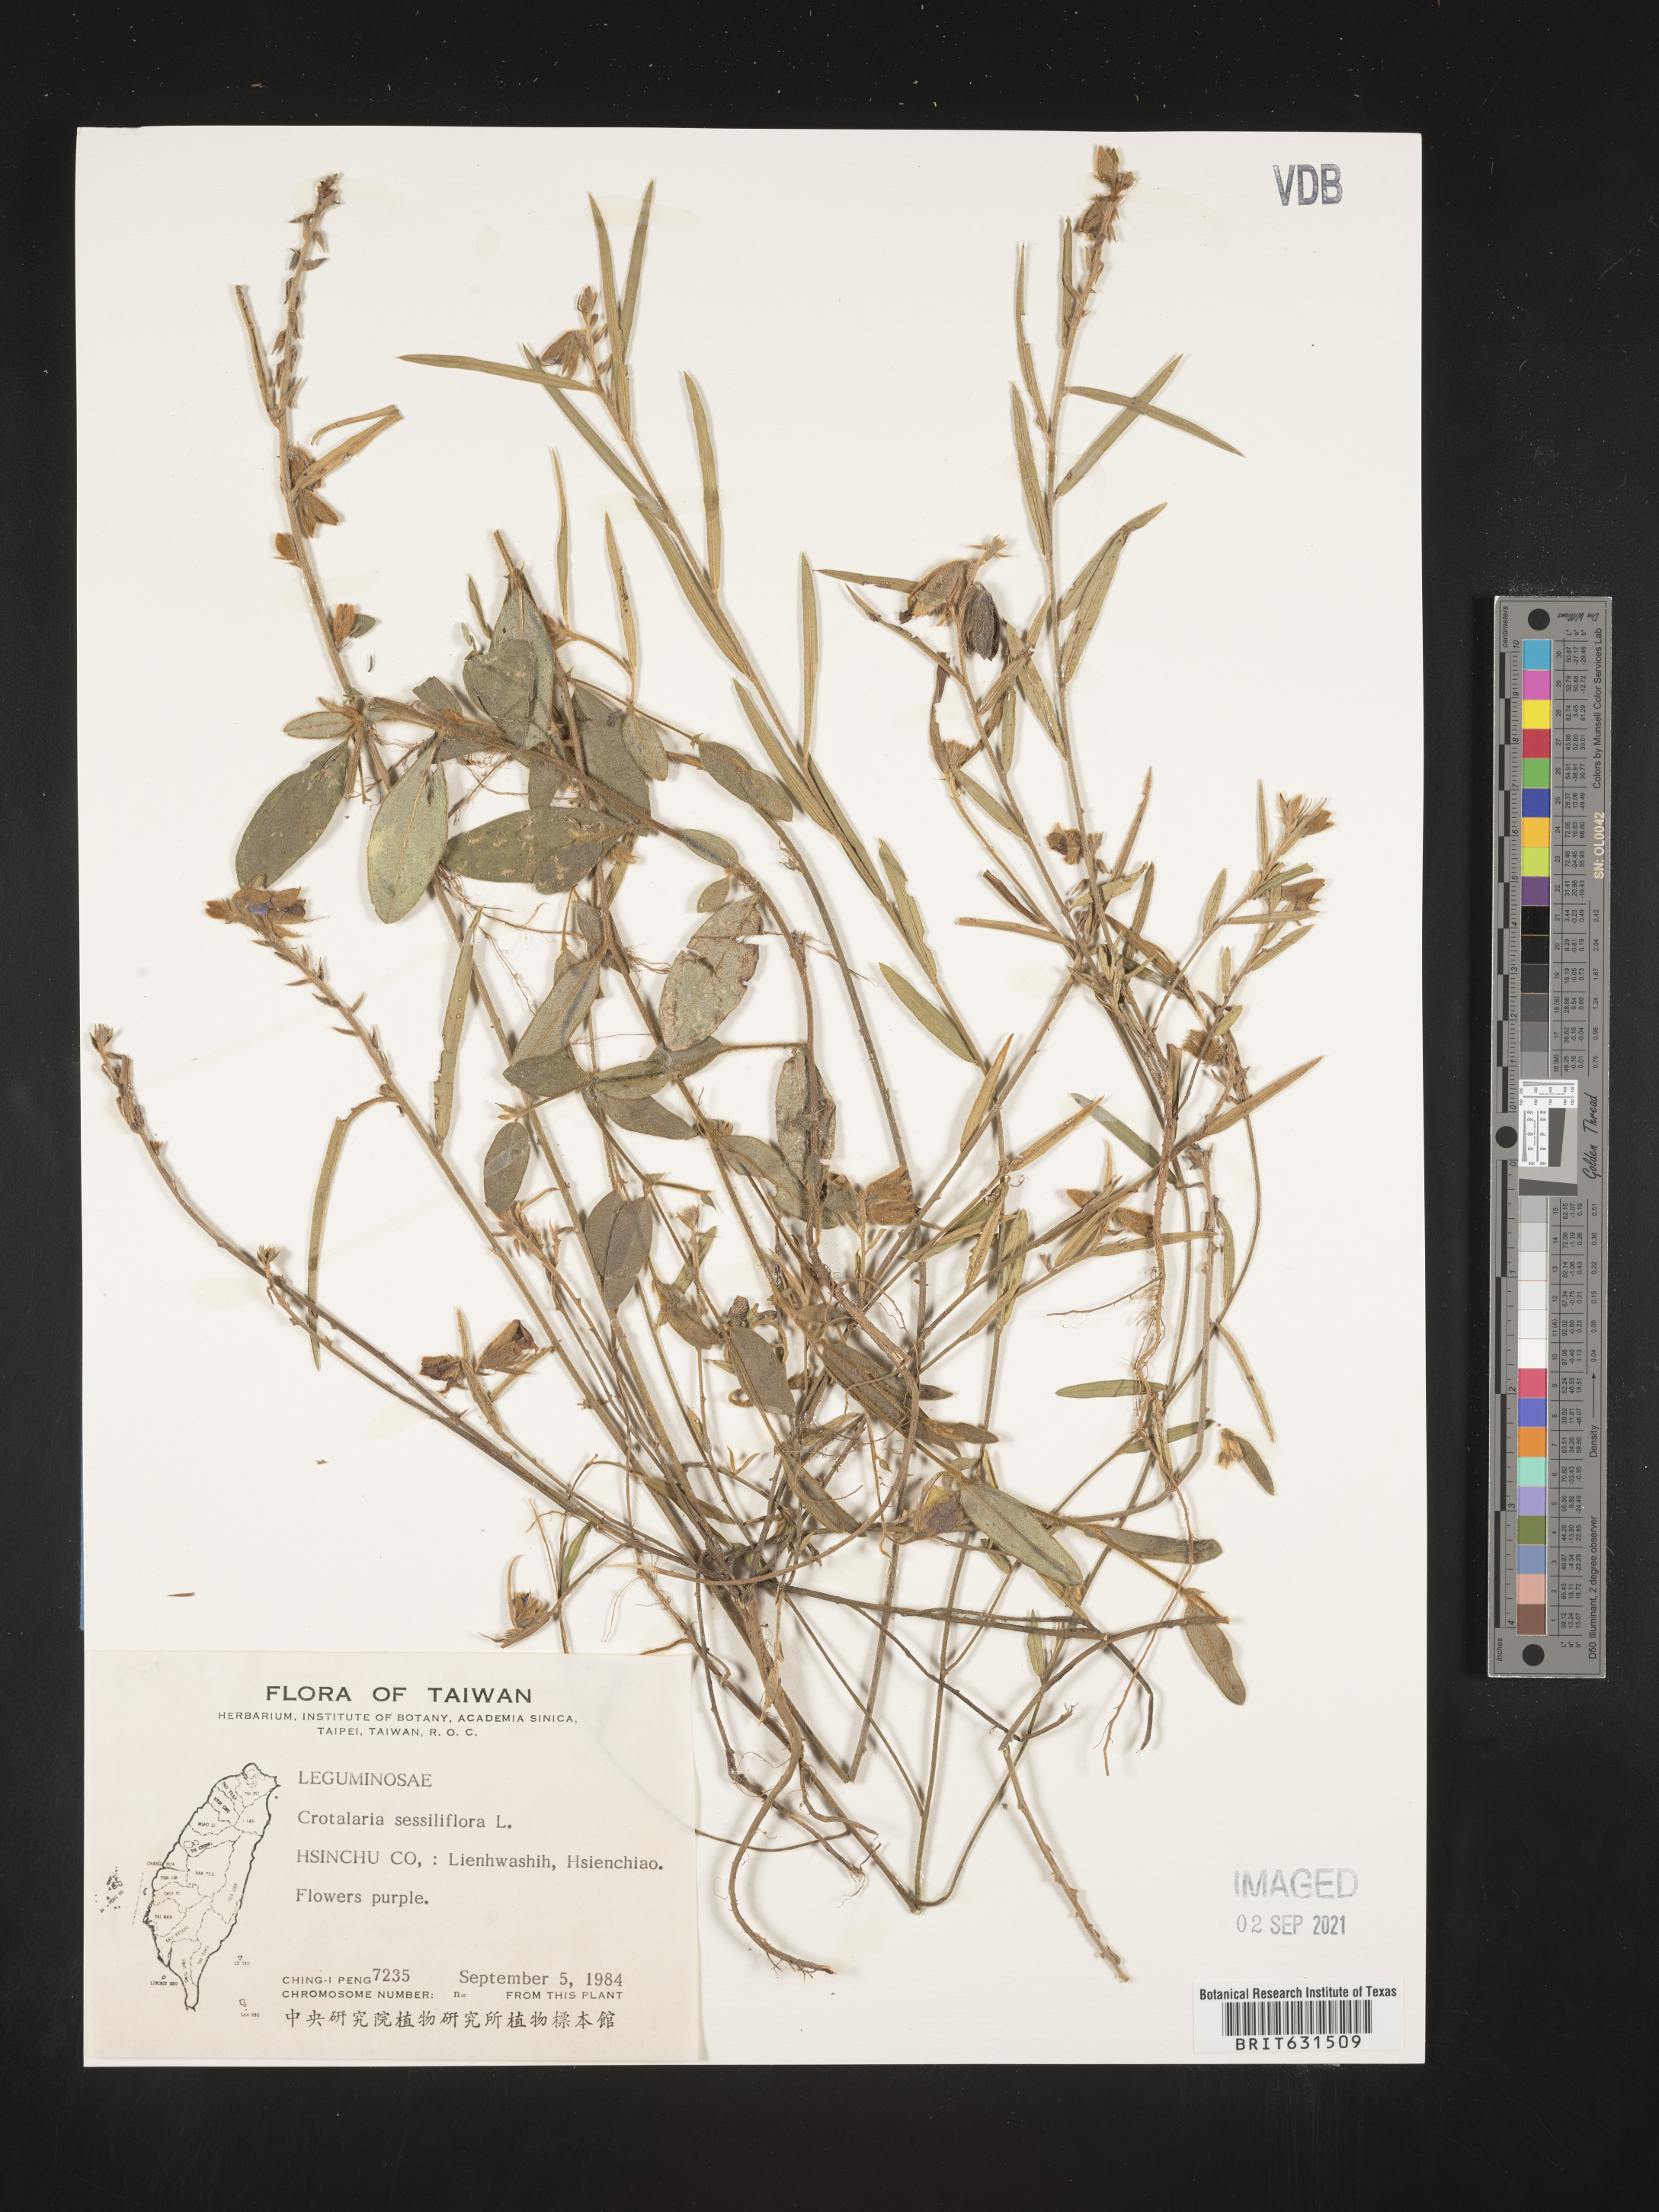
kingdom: Plantae
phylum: Tracheophyta
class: Magnoliopsida
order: Fabales
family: Fabaceae
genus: Crotalaria
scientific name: Crotalaria sessiliflora
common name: Rattlebox
